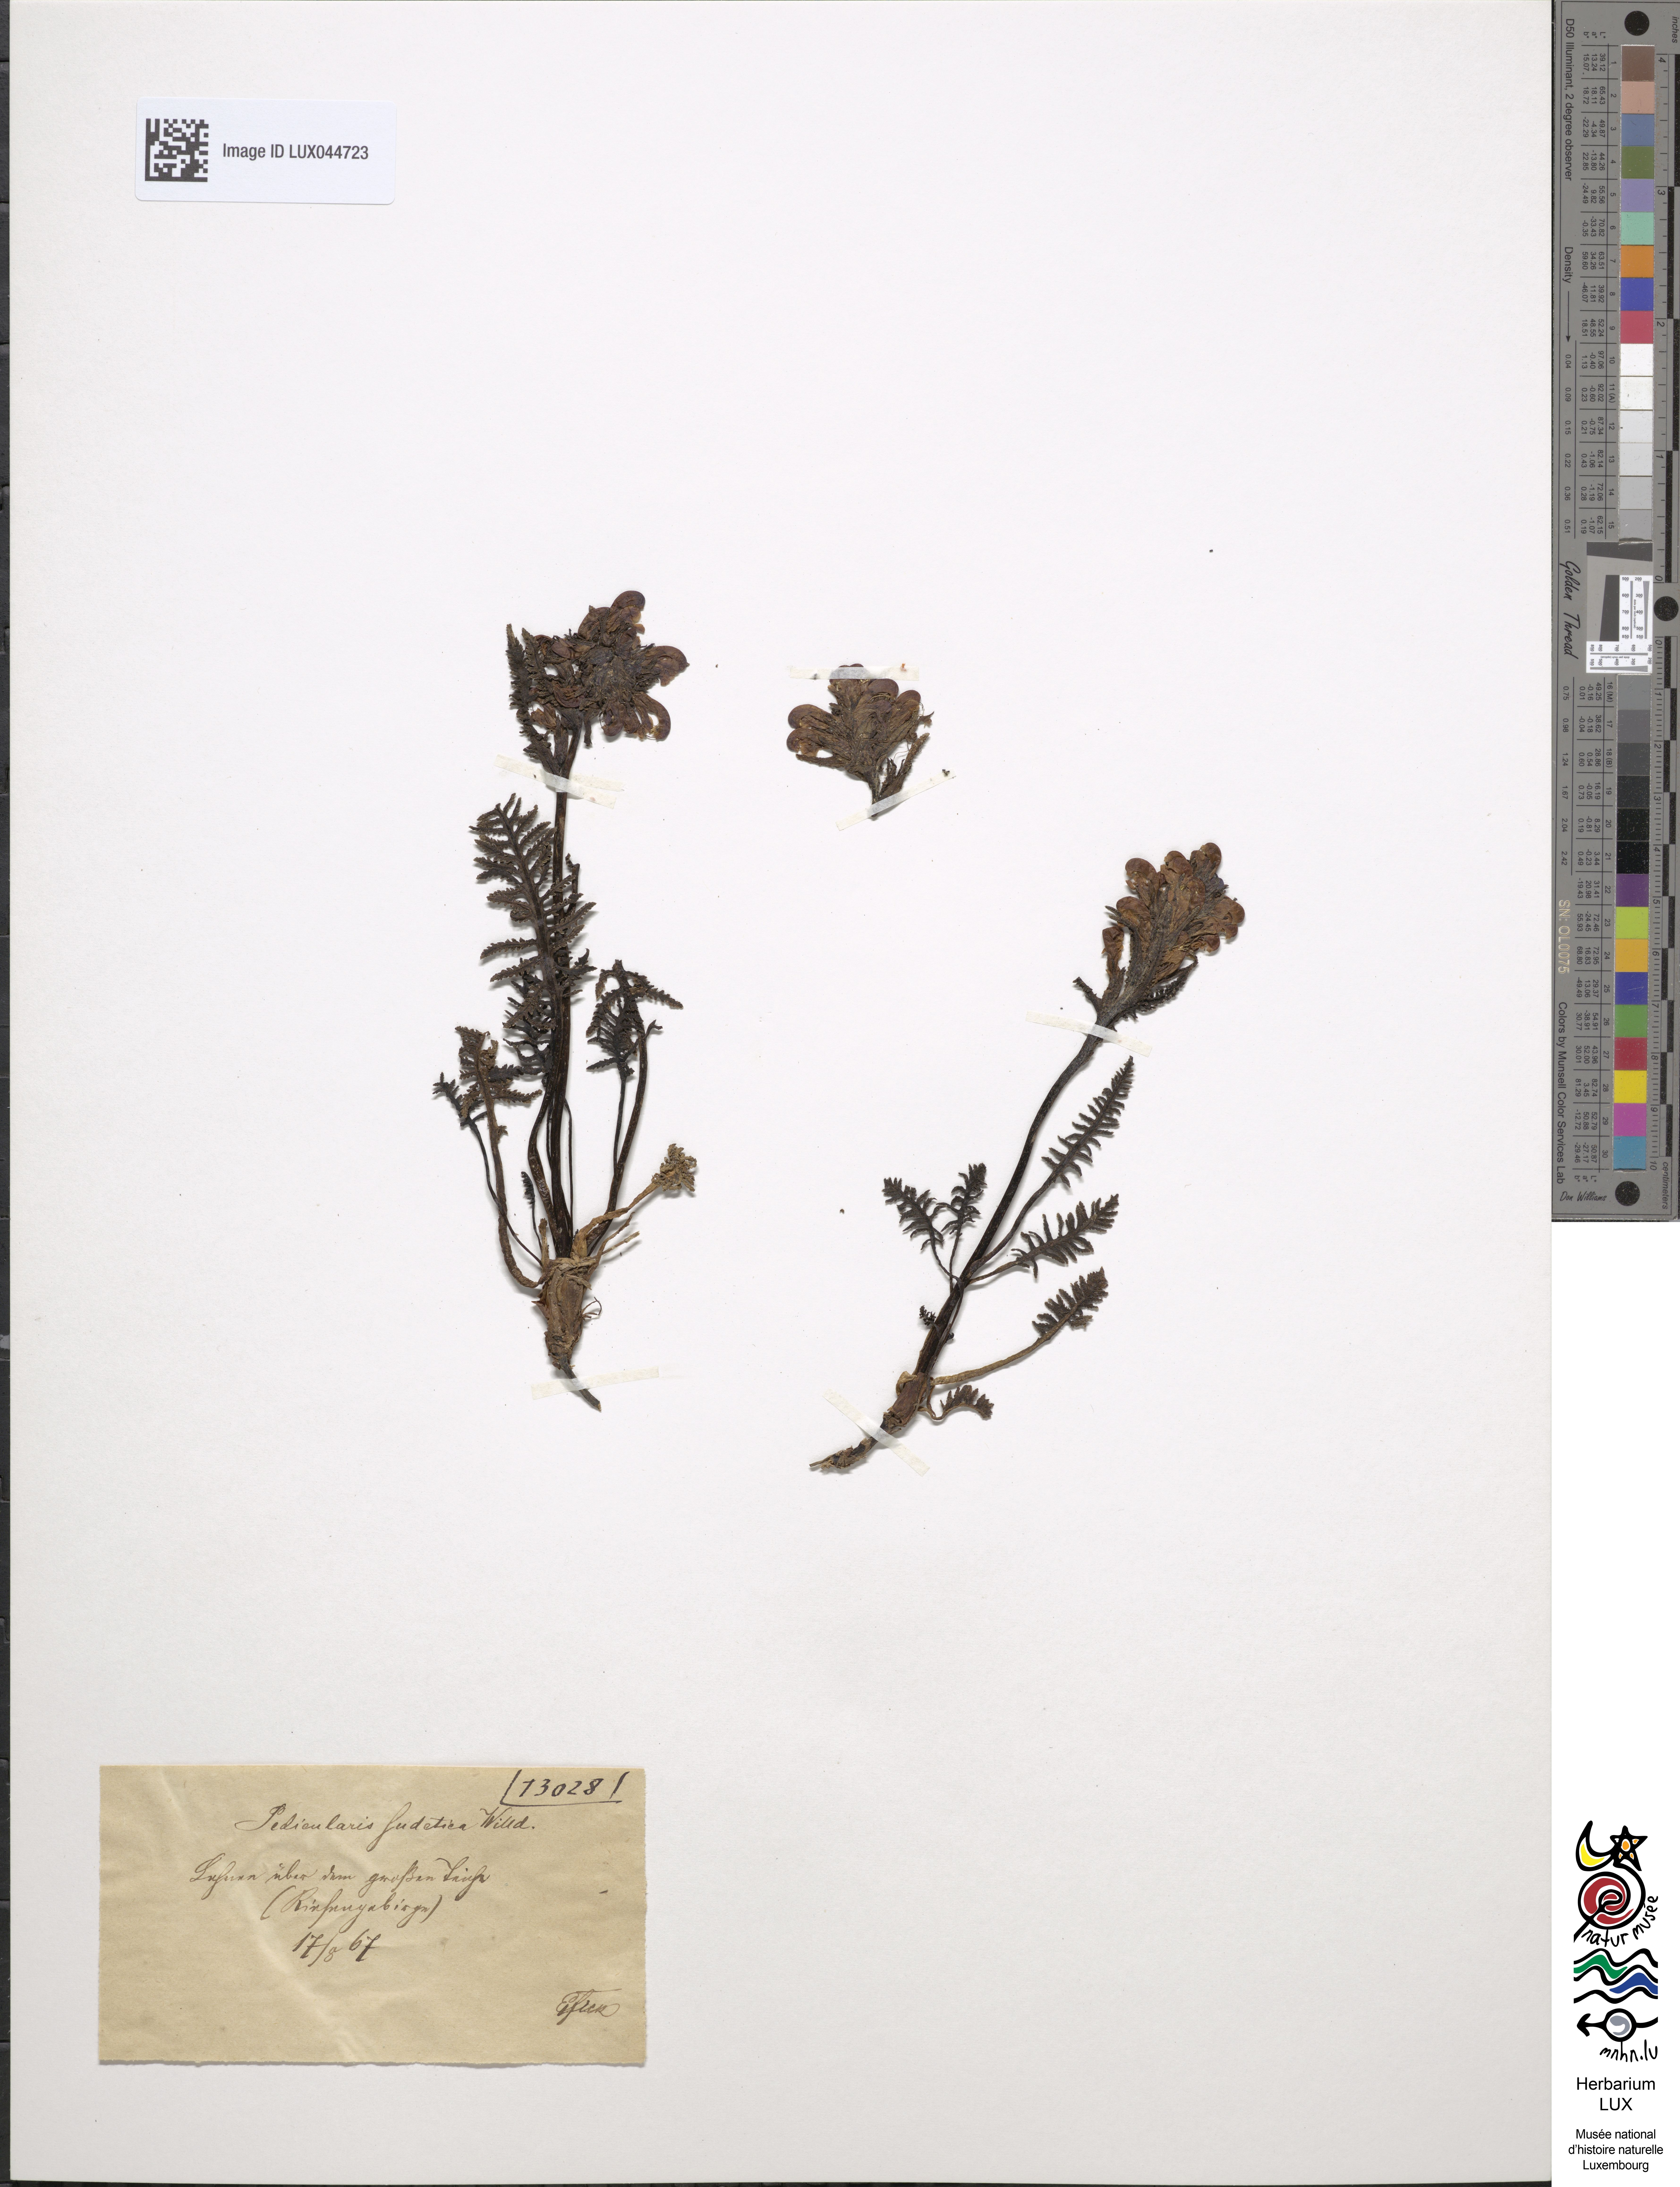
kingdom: Plantae
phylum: Tracheophyta
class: Magnoliopsida
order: Lamiales
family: Orobanchaceae
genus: Pedicularis
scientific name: Pedicularis sudetica
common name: Sudeten lousewort
